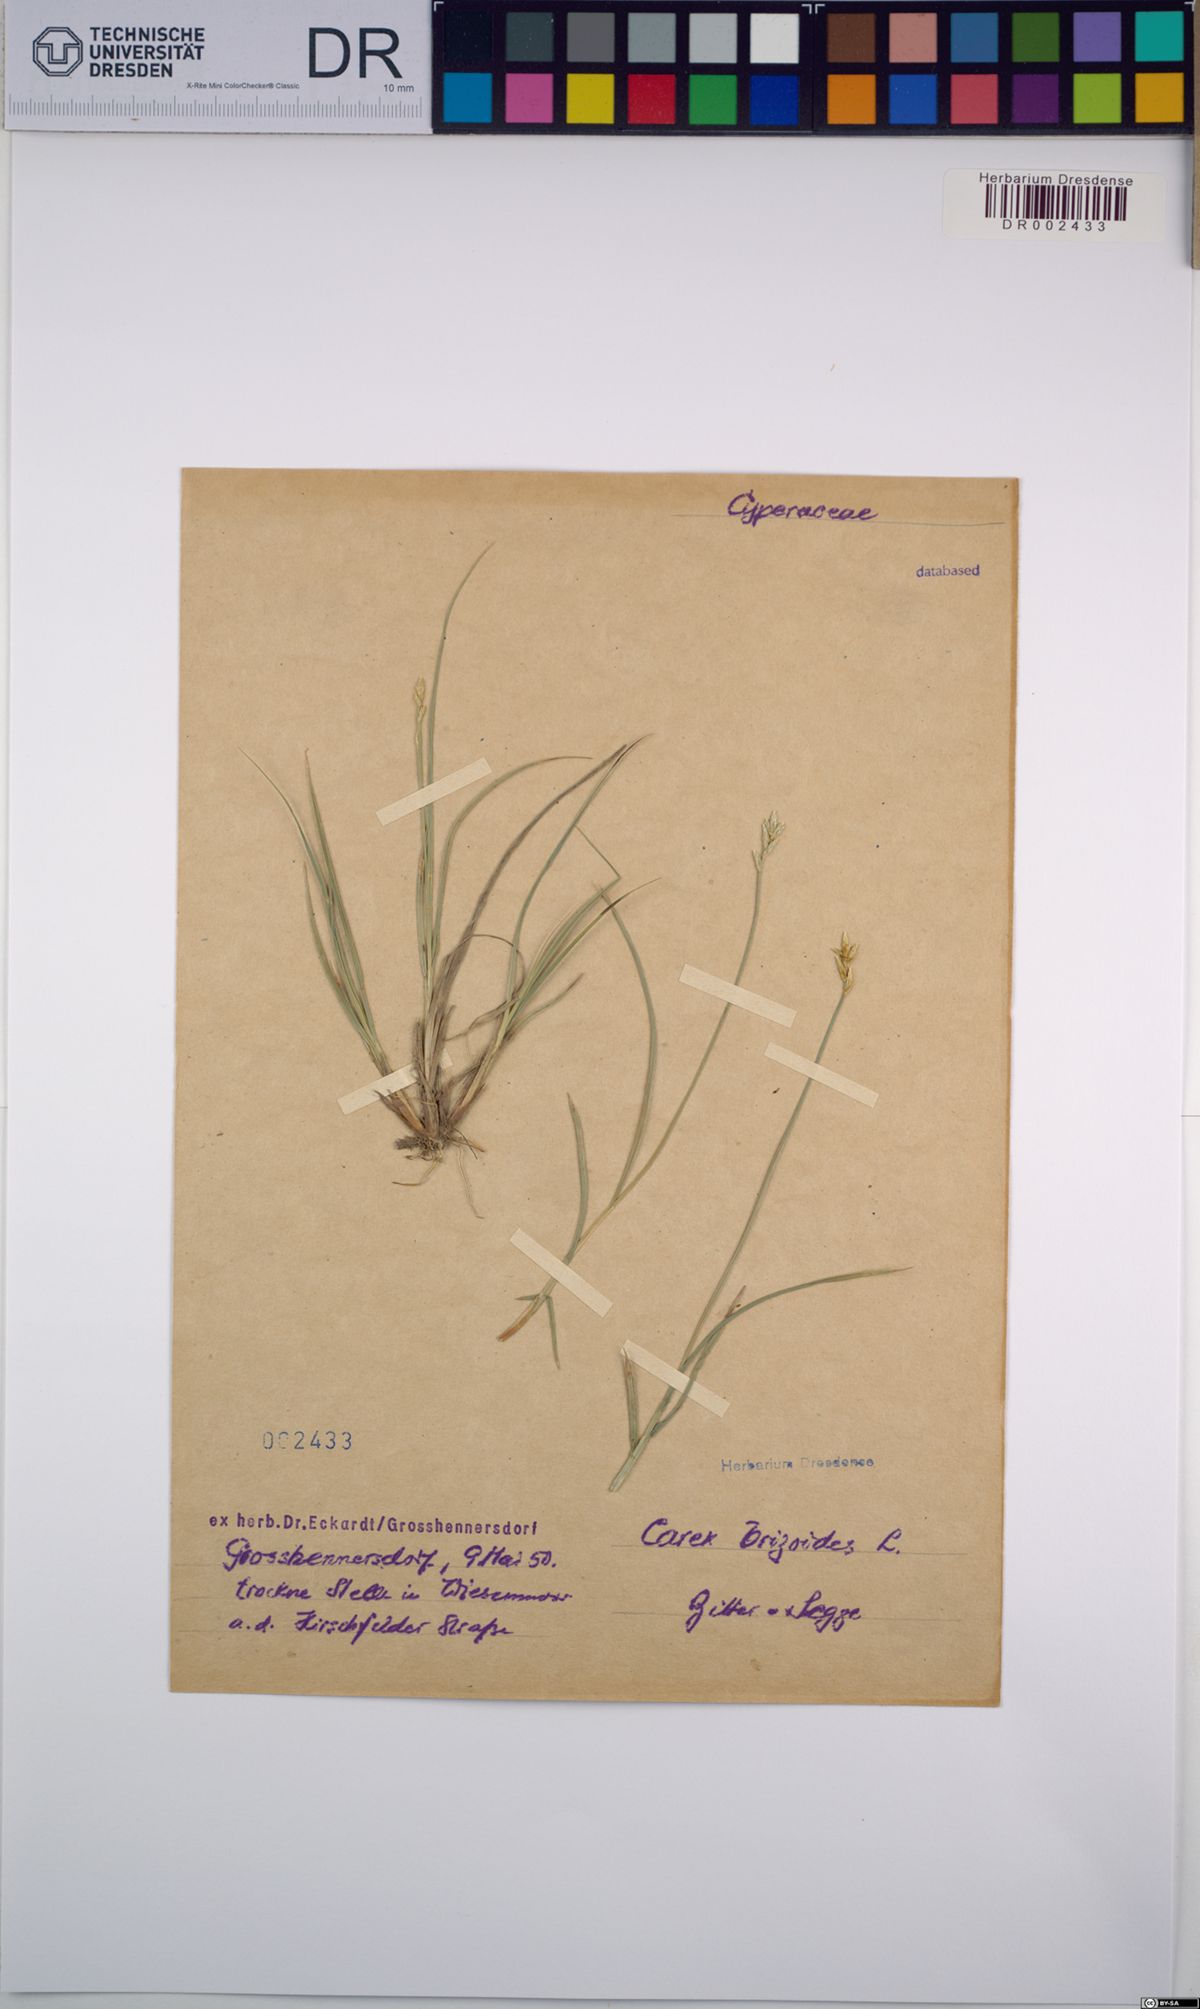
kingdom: Plantae
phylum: Tracheophyta
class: Liliopsida
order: Poales
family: Cyperaceae
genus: Carex
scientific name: Carex brizoides
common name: Quaking-grass sedge
